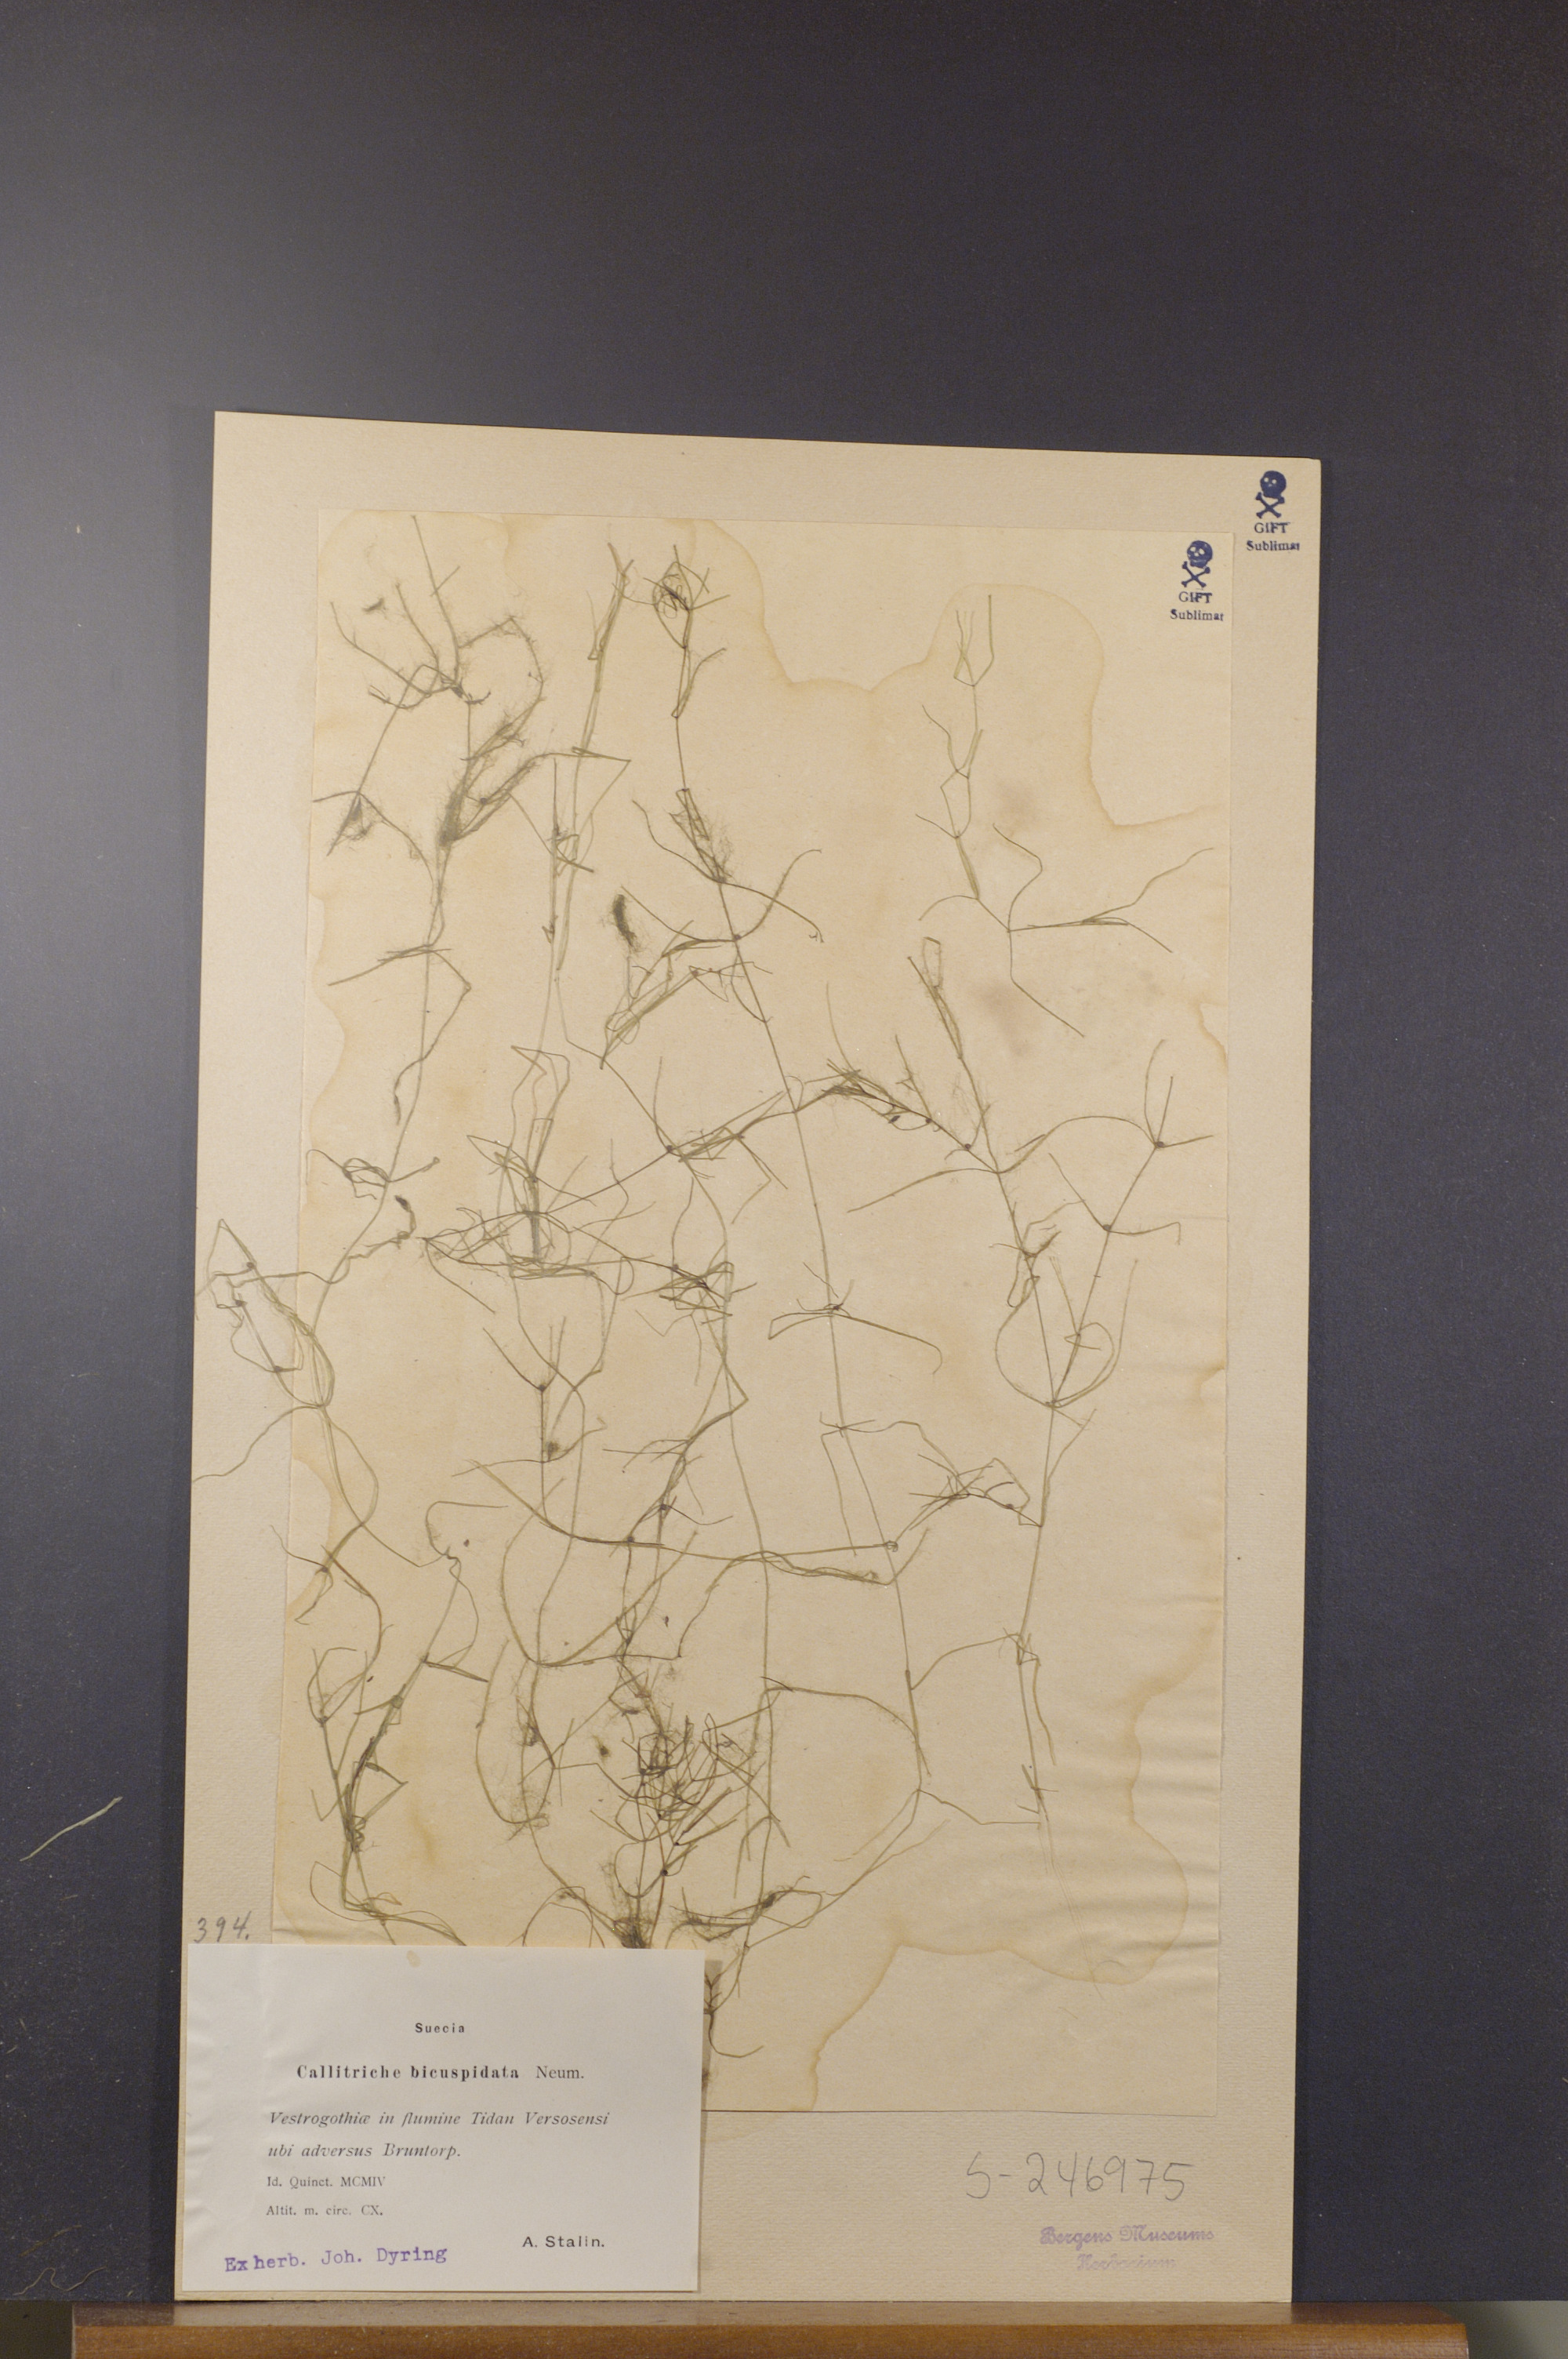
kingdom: Plantae
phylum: Tracheophyta
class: Magnoliopsida
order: Lamiales
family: Plantaginaceae
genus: Callitriche
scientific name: Callitriche hamulata
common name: Intermediate water-starwort
